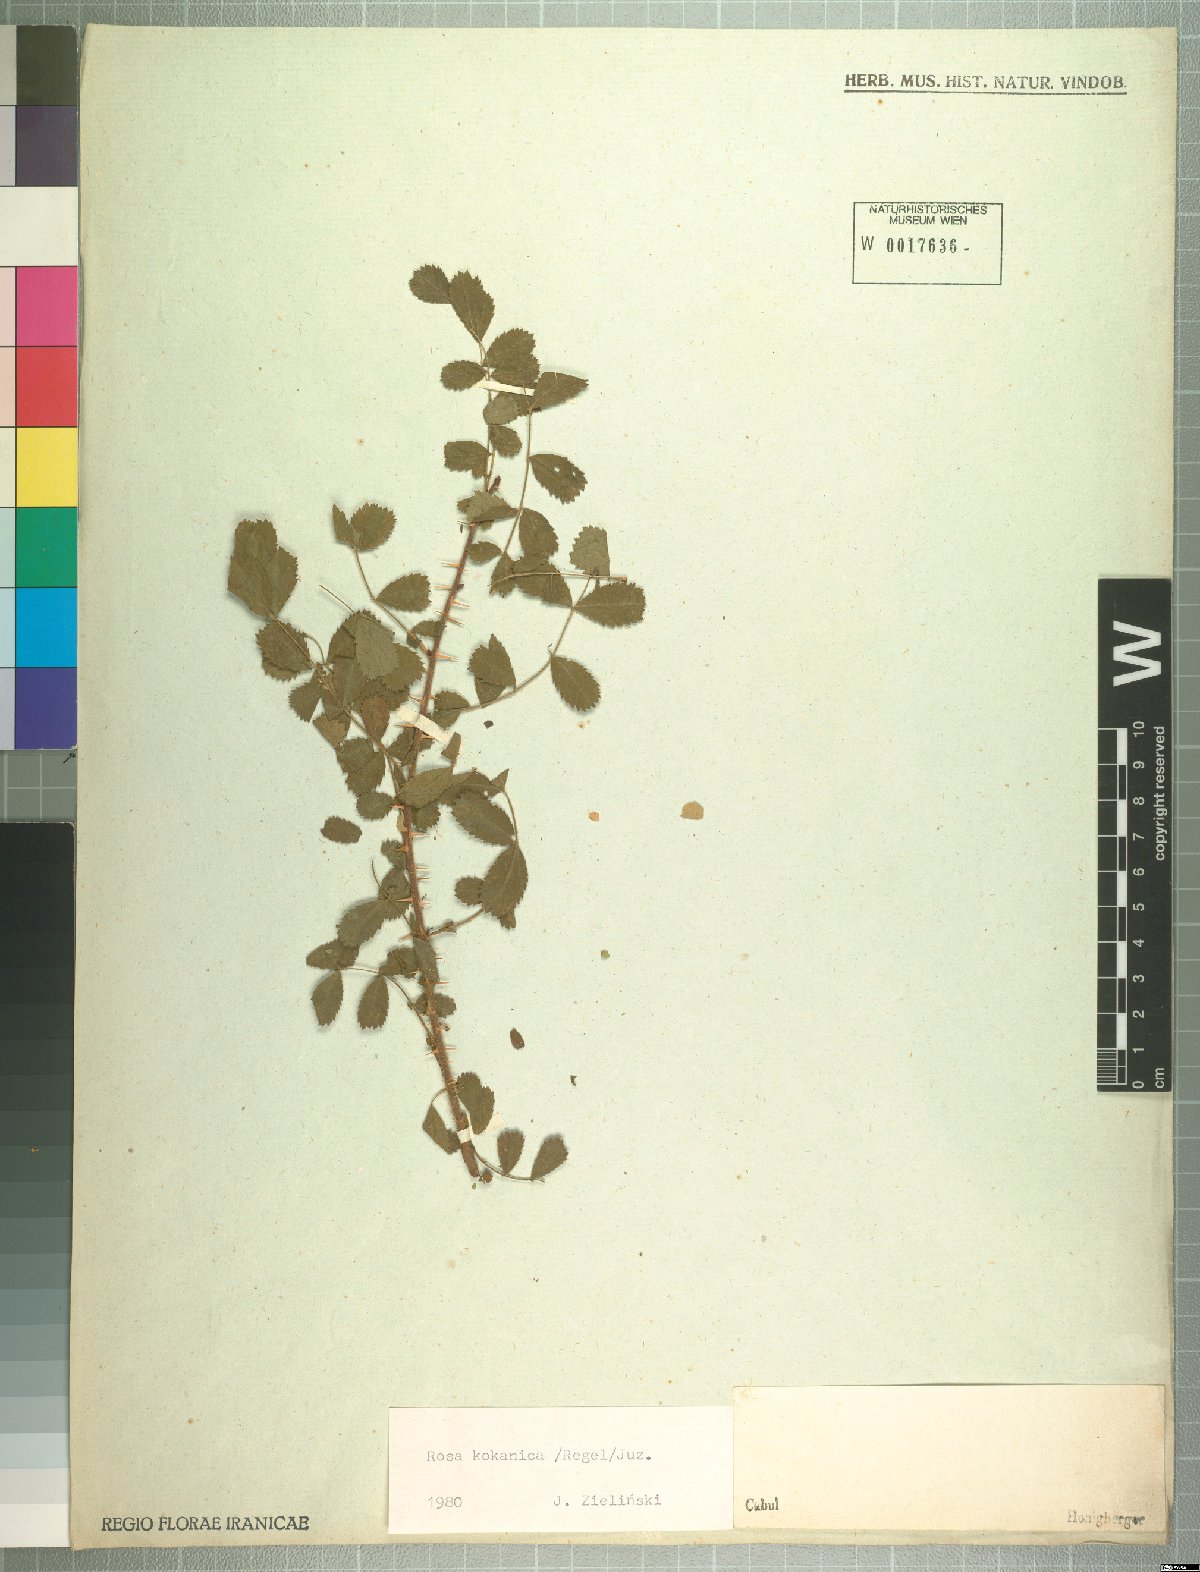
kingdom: Plantae
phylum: Tracheophyta
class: Magnoliopsida
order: Rosales
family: Rosaceae
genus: Rosa
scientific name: Rosa kokanica
